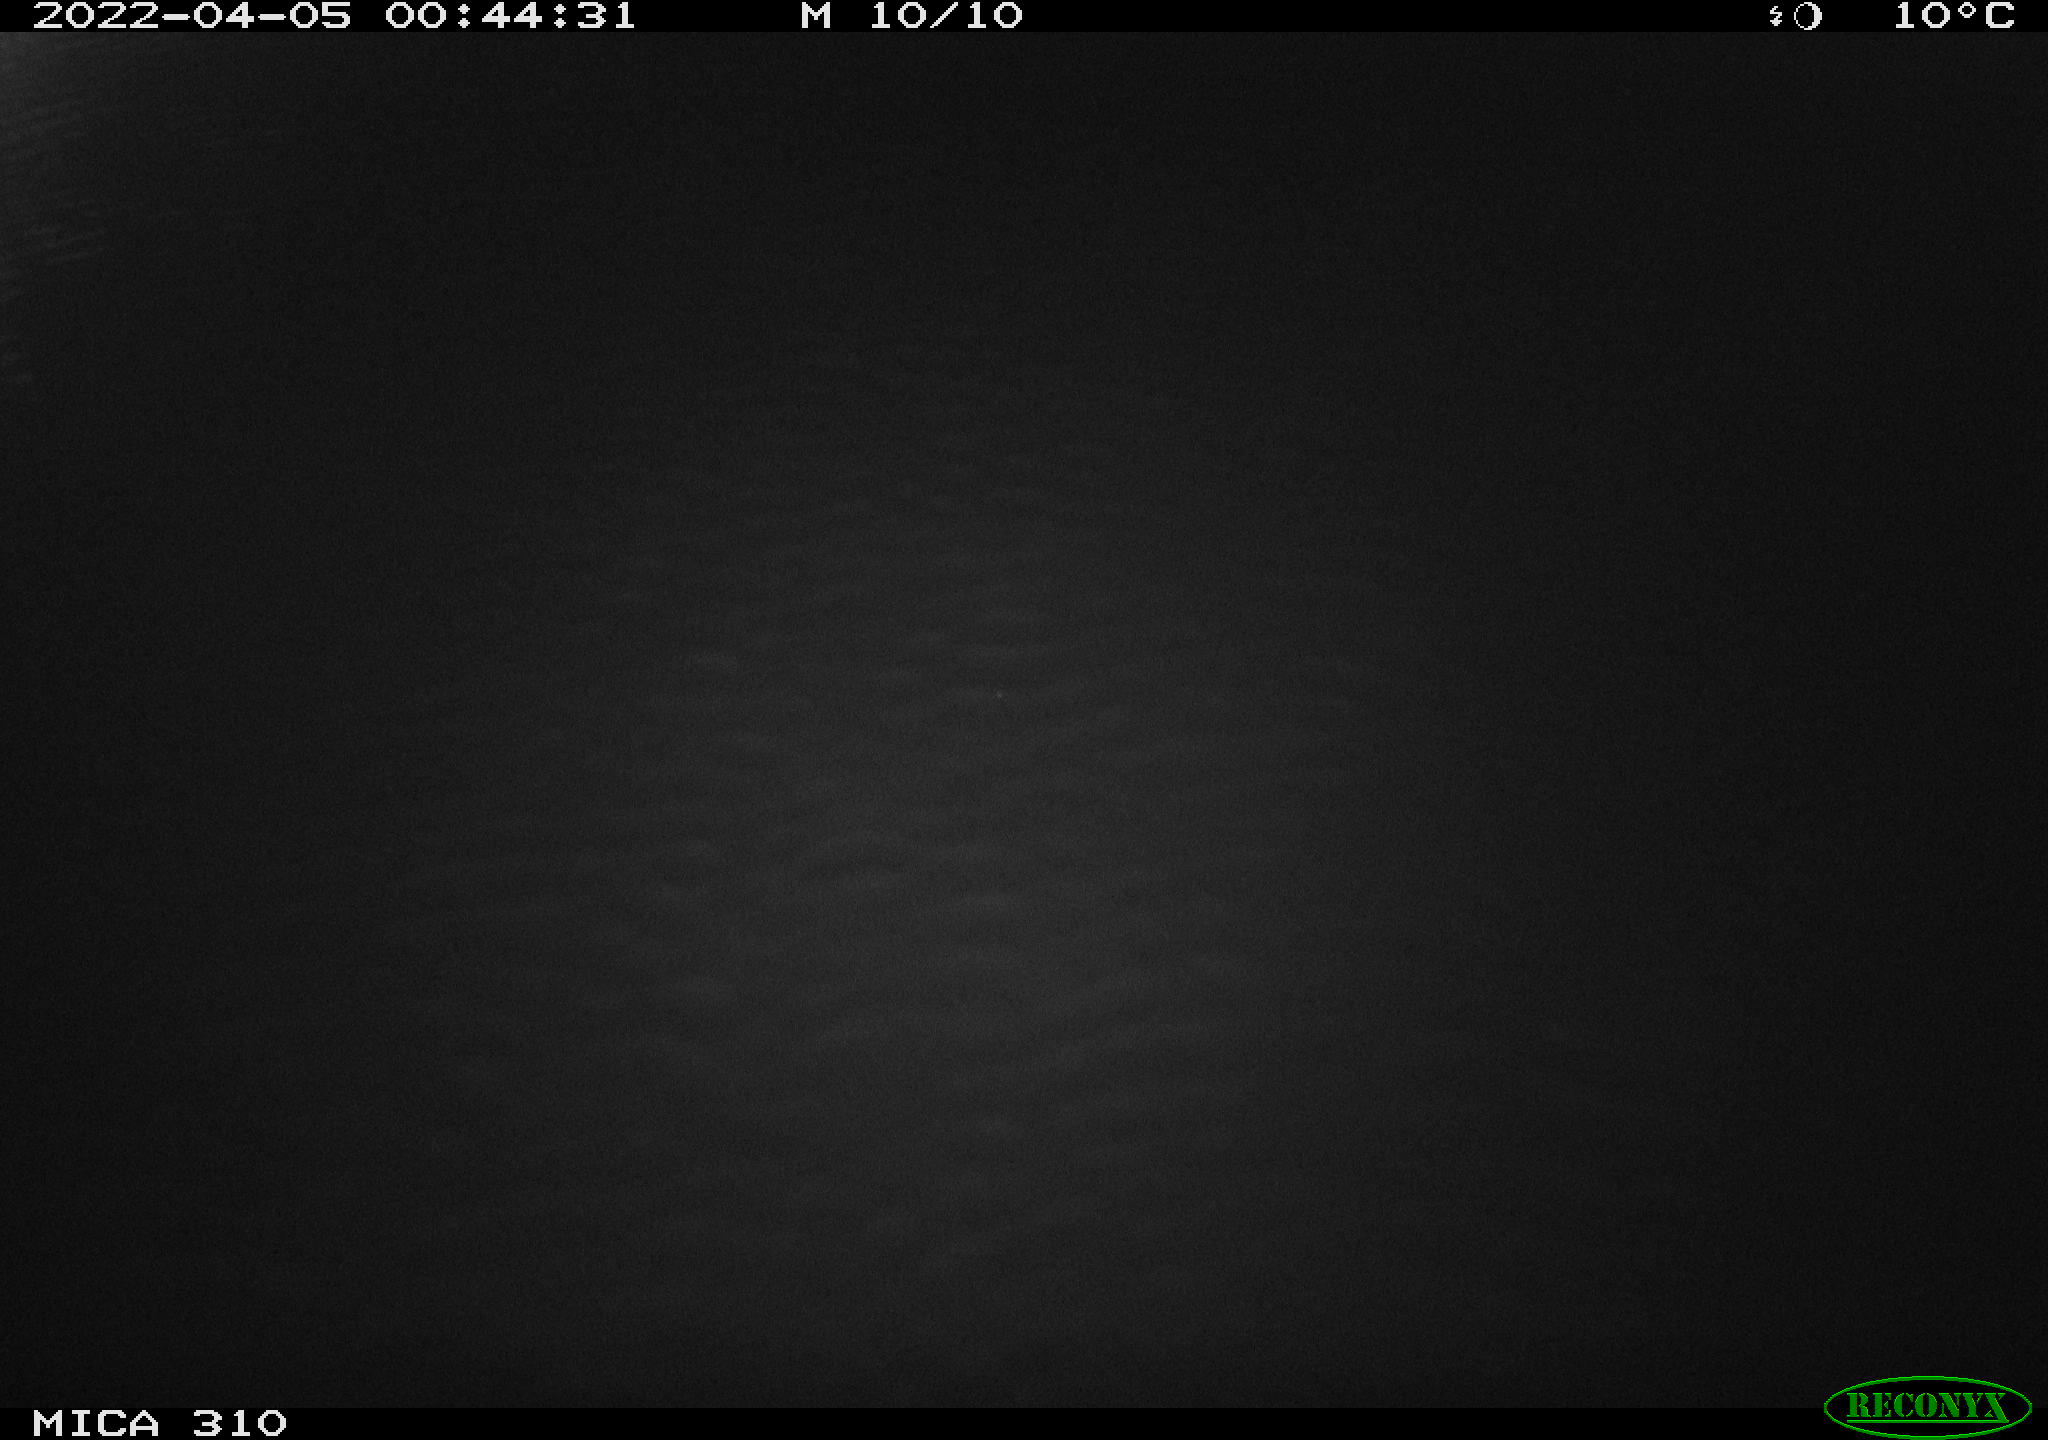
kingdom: Animalia
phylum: Chordata
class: Aves
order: Anseriformes
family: Anatidae
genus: Anas
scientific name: Anas platyrhynchos
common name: Mallard
